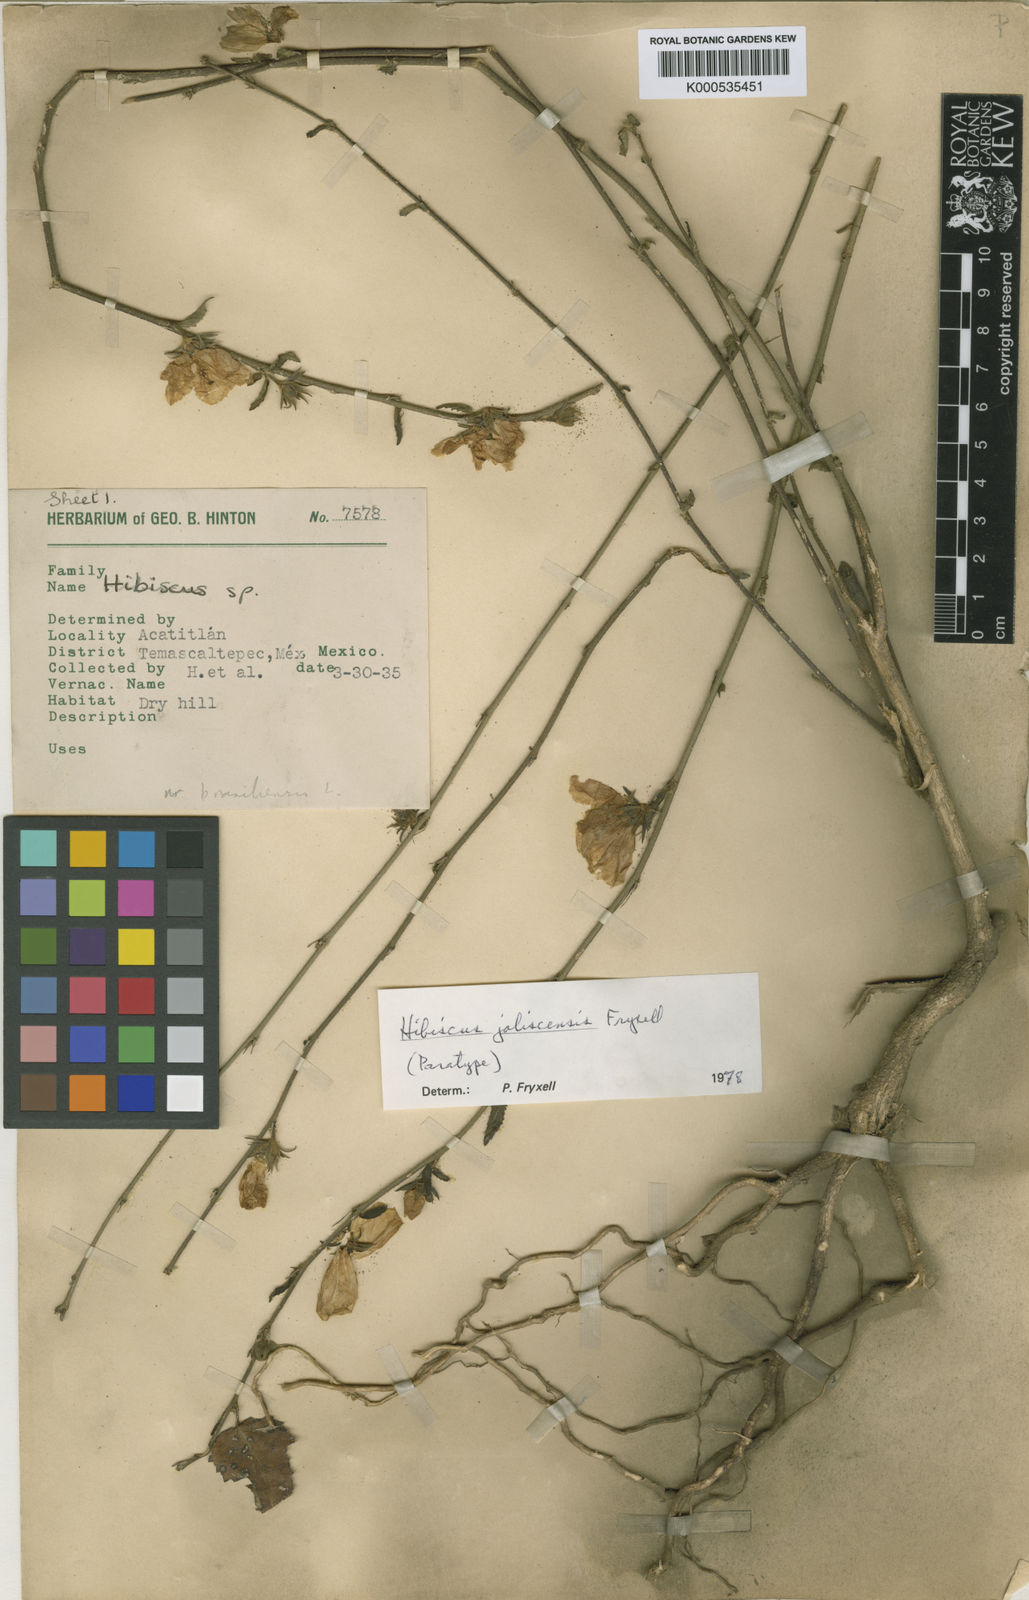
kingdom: Plantae
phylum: Tracheophyta
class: Magnoliopsida
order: Malvales
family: Malvaceae
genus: Hibiscus
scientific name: Hibiscus jaliscensis
